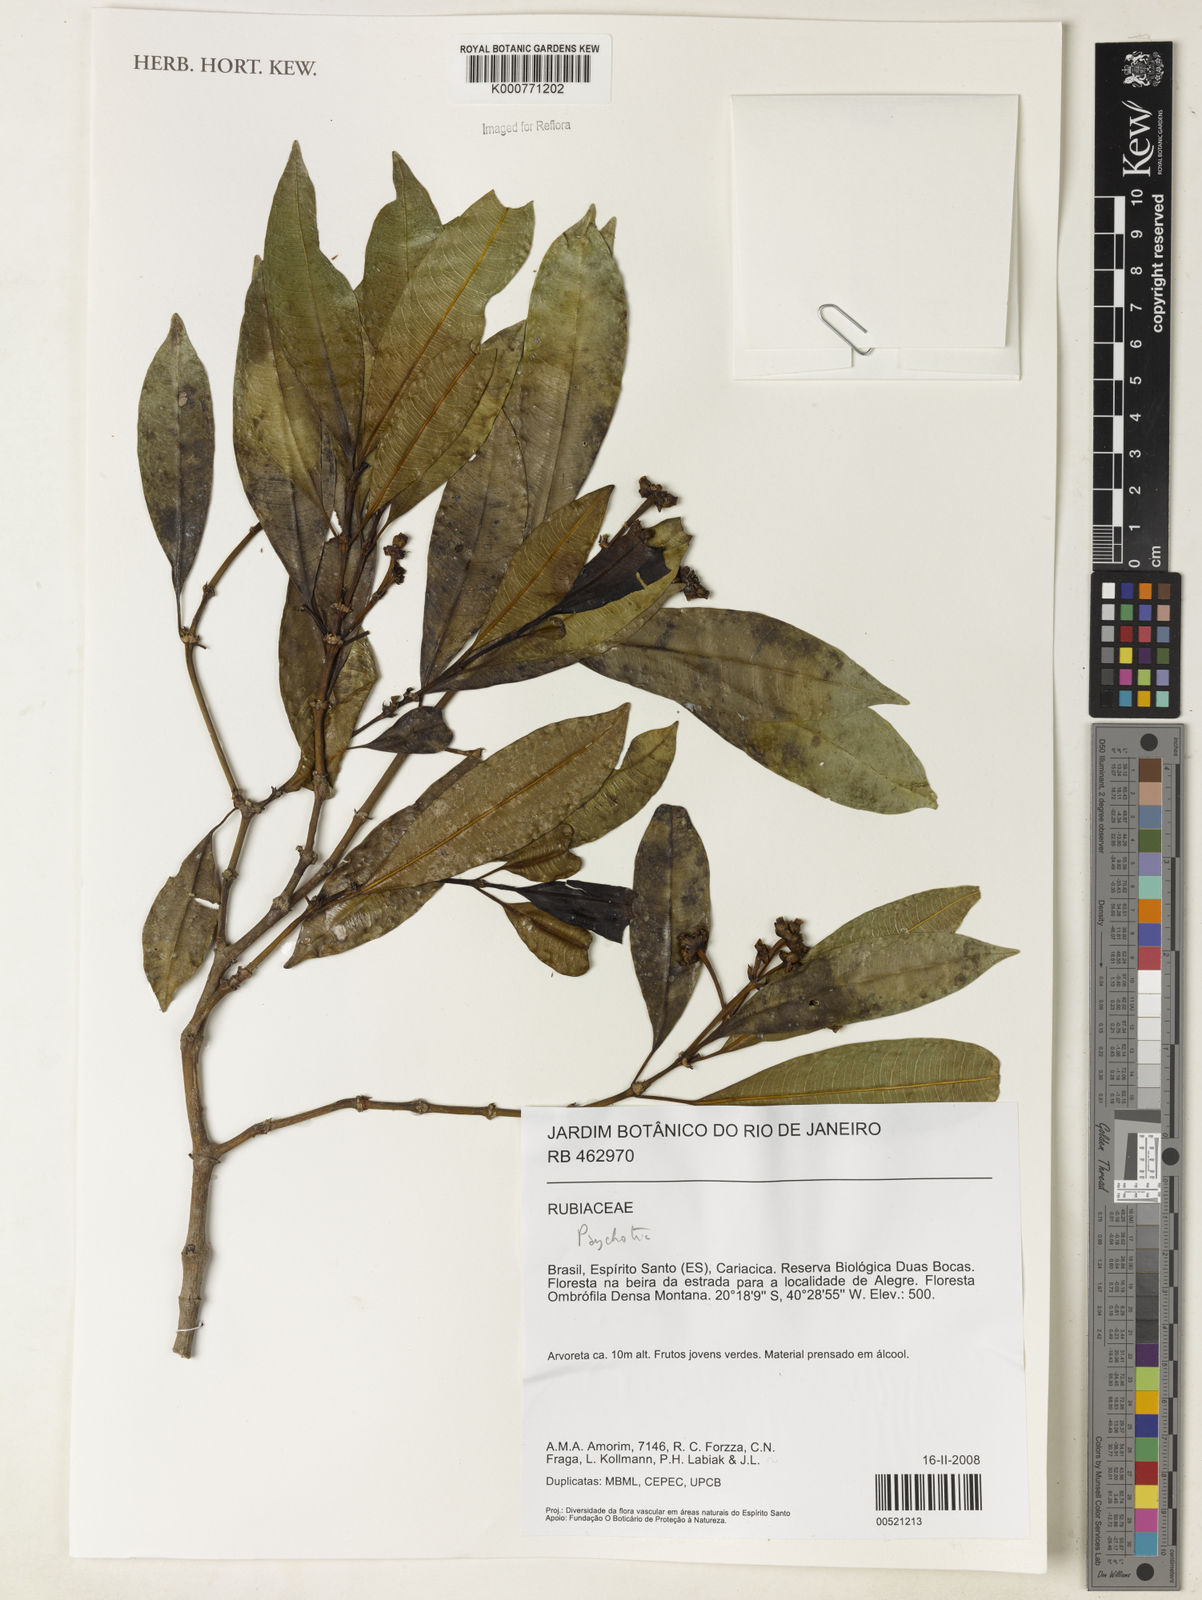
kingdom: Plantae
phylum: Tracheophyta
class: Magnoliopsida
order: Gentianales
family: Rubiaceae
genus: Psychotria
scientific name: Psychotria
